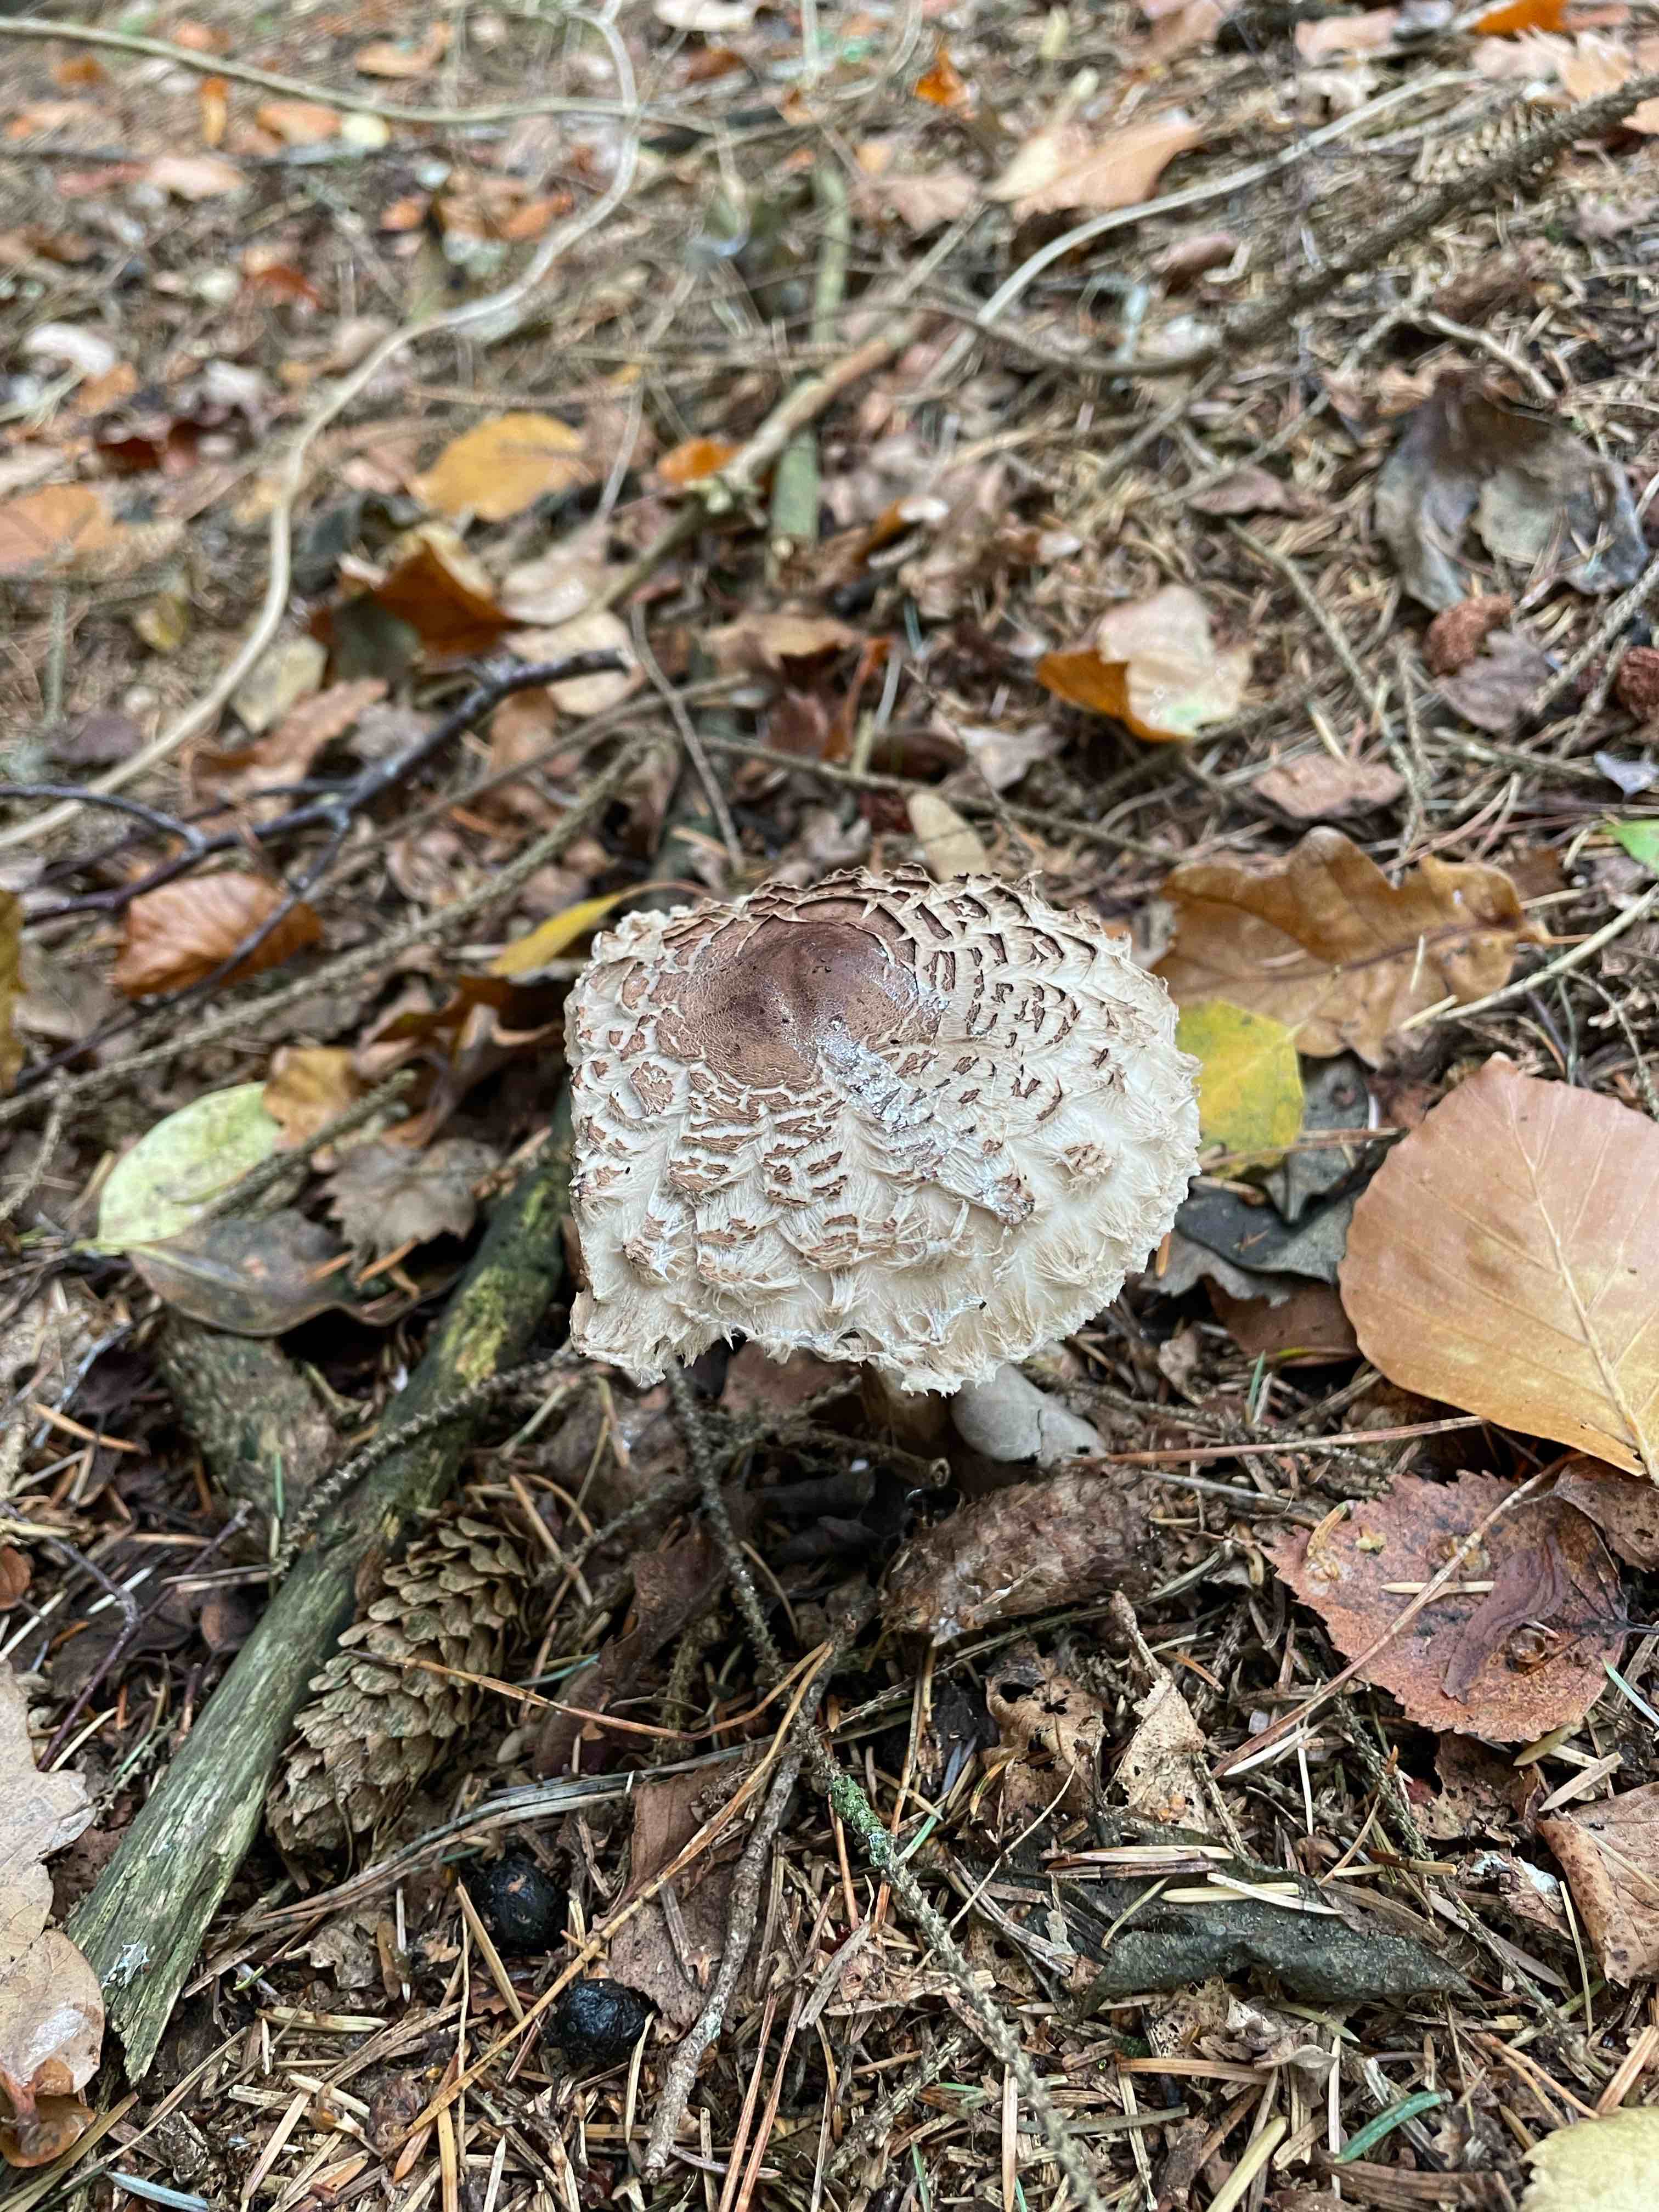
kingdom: Fungi
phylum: Basidiomycota
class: Agaricomycetes
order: Agaricales
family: Agaricaceae
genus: Chlorophyllum
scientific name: Chlorophyllum olivieri
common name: almindelig rabarberhat
